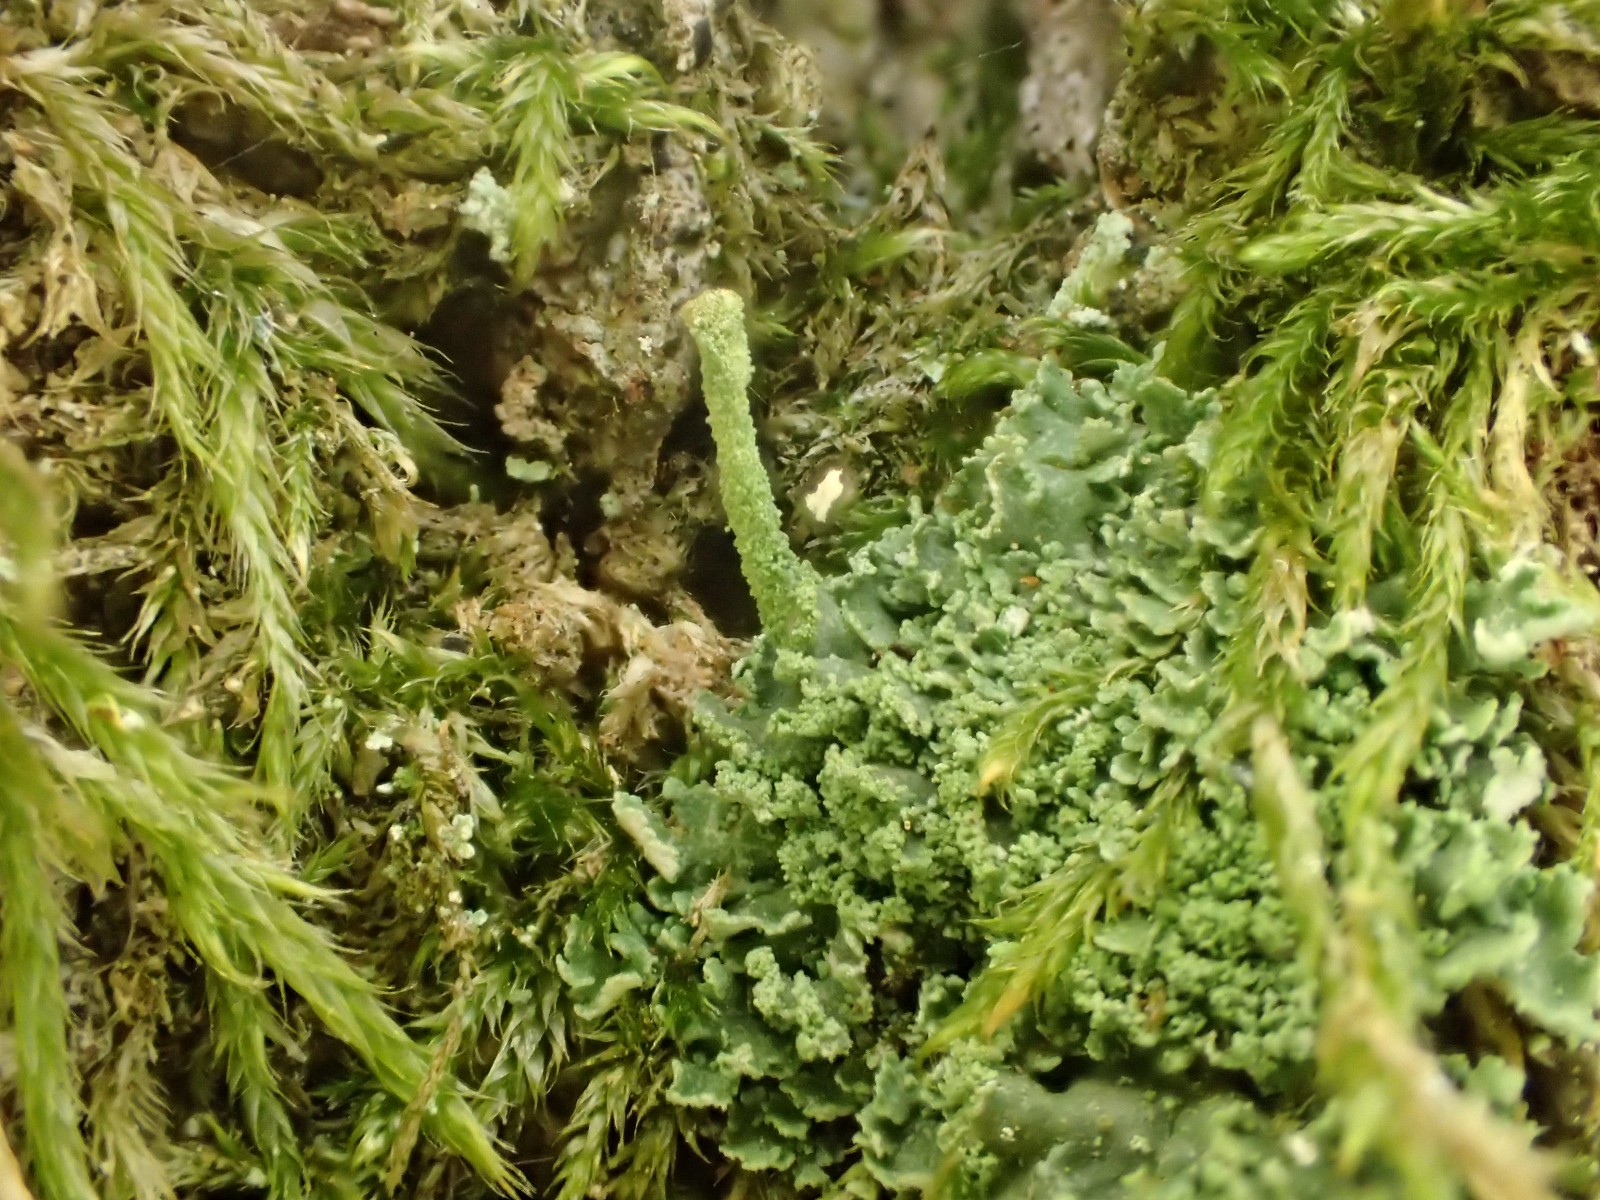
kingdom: Fungi
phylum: Ascomycota
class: Lecanoromycetes
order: Lecanorales
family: Cladoniaceae
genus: Cladonia
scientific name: Cladonia
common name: brungrøn bægerlav
